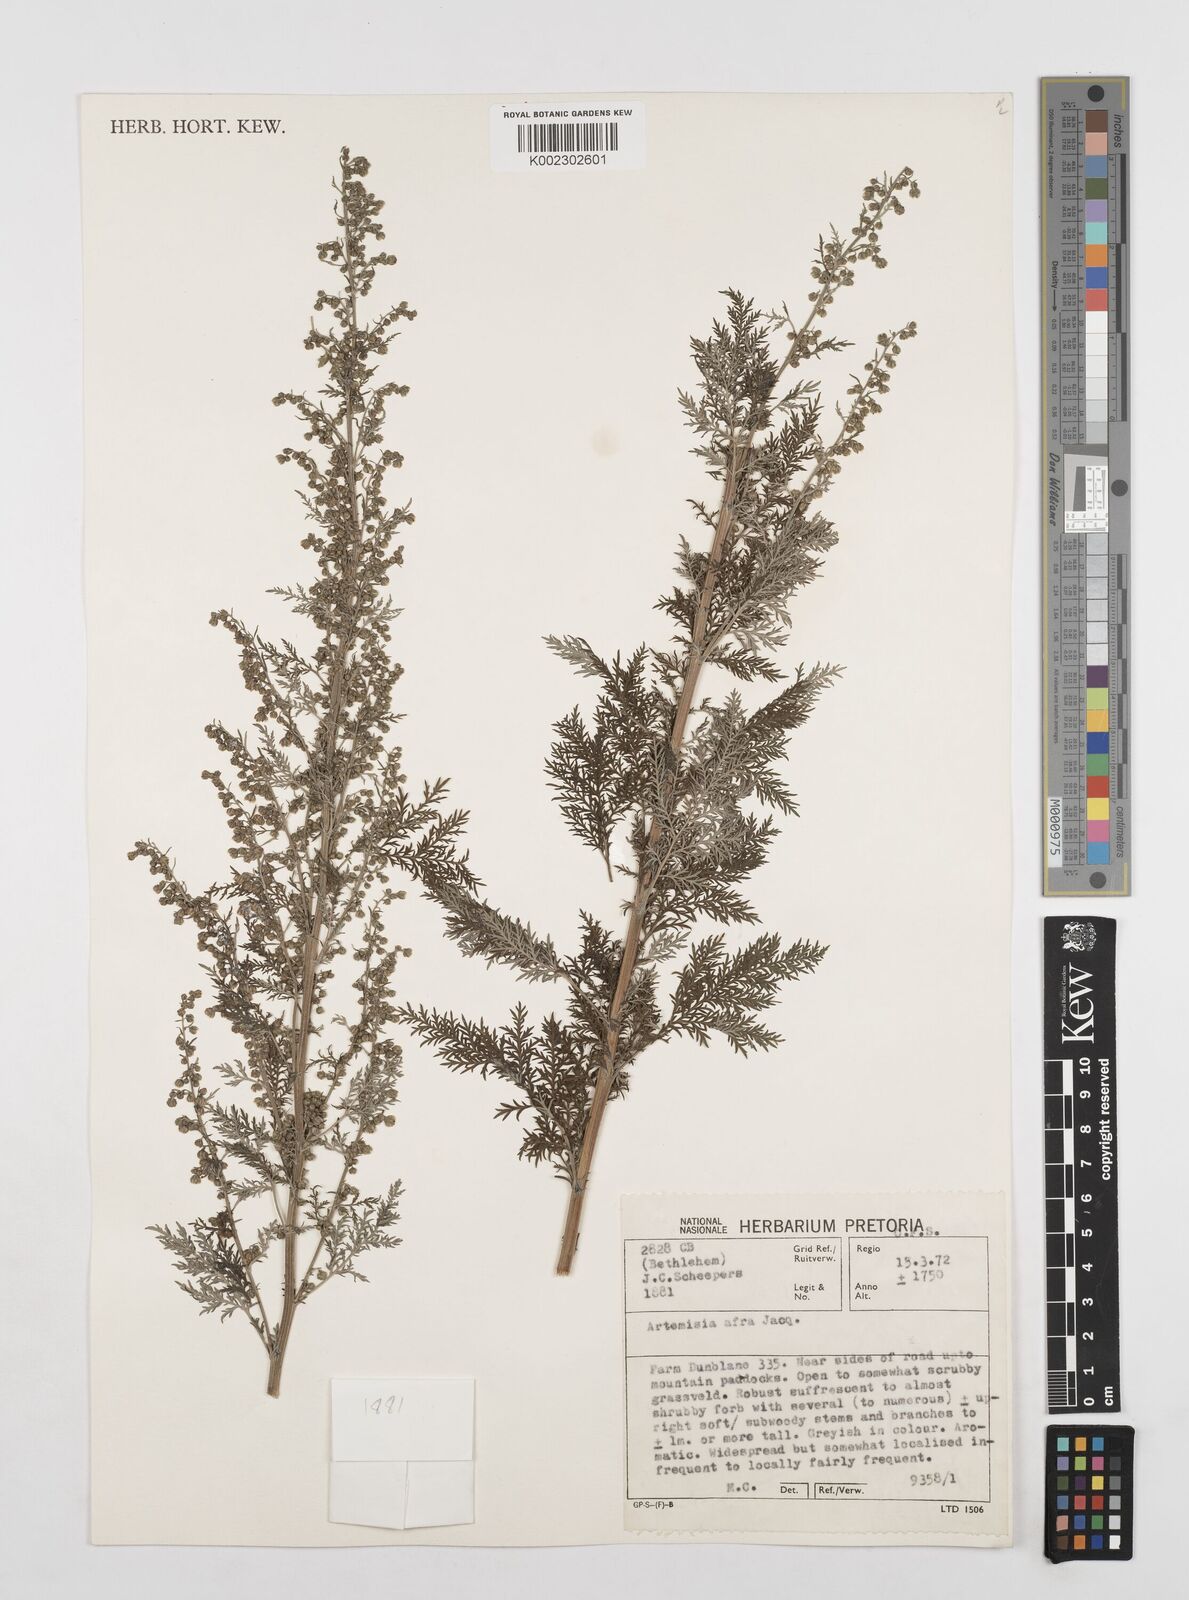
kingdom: Plantae
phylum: Tracheophyta
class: Magnoliopsida
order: Asterales
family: Asteraceae
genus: Artemisia
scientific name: Artemisia afra
